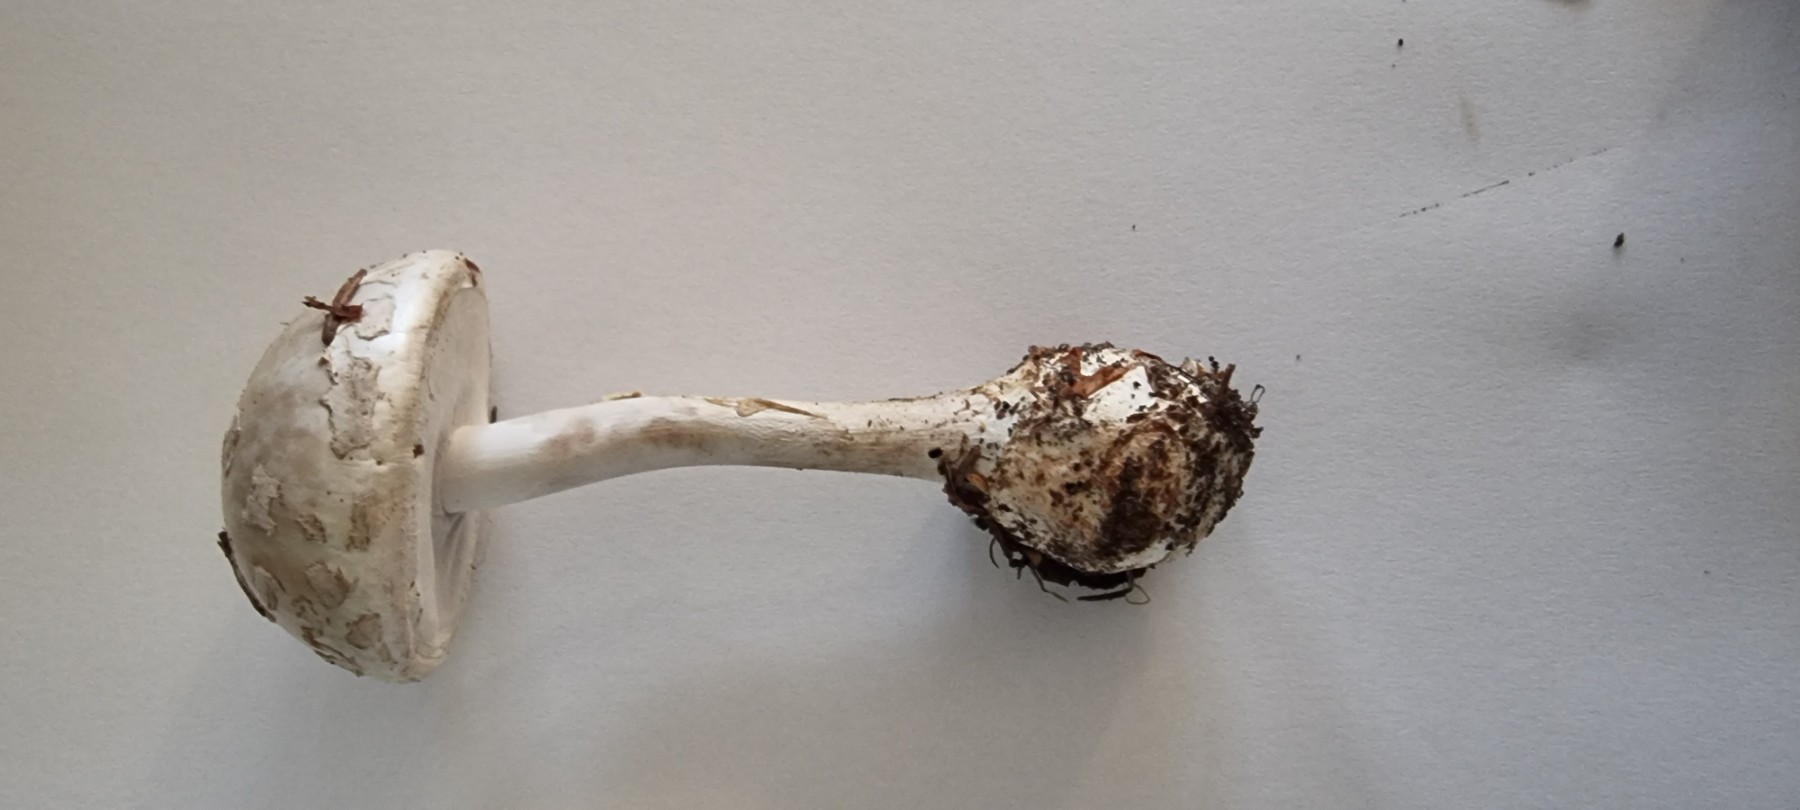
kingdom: Fungi
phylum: Basidiomycota
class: Agaricomycetes
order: Agaricales
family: Amanitaceae
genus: Amanita
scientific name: Amanita citrina
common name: kugleknoldet fluesvamp
